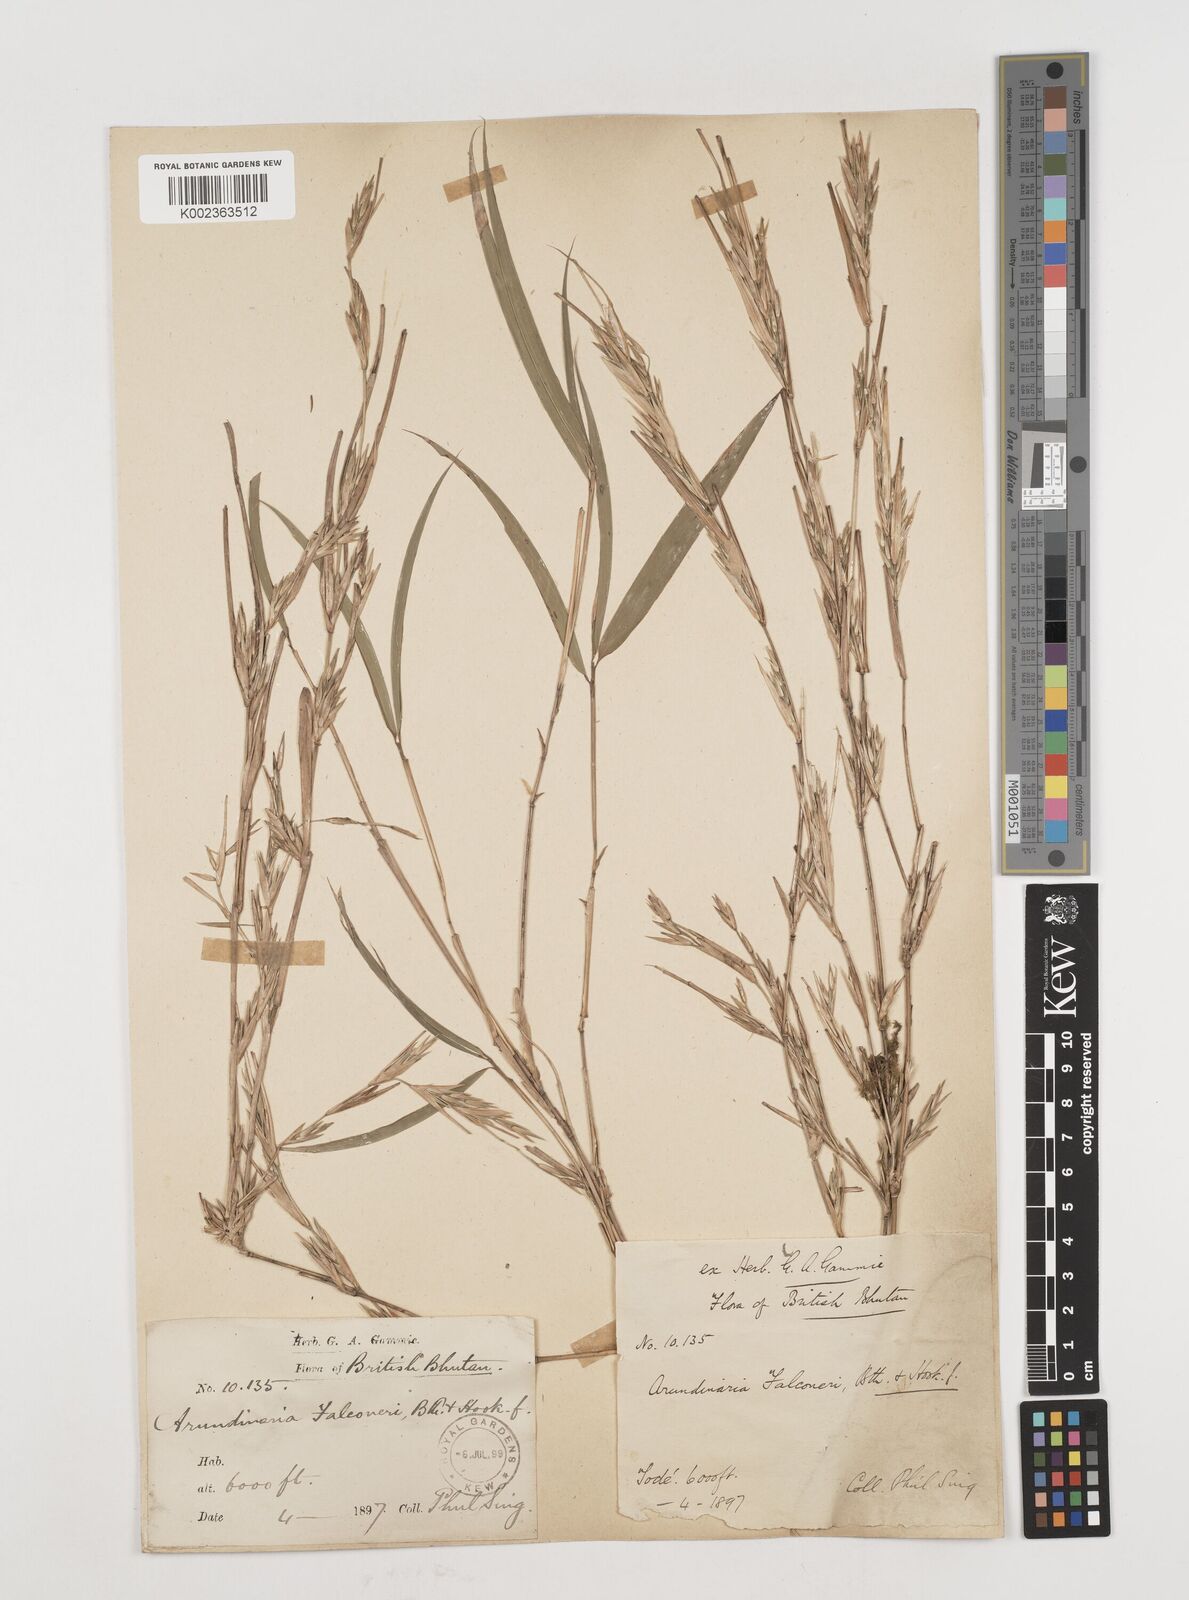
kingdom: Plantae
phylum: Tracheophyta
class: Liliopsida
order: Poales
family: Poaceae
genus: Himalayacalamus
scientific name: Himalayacalamus falconeri
